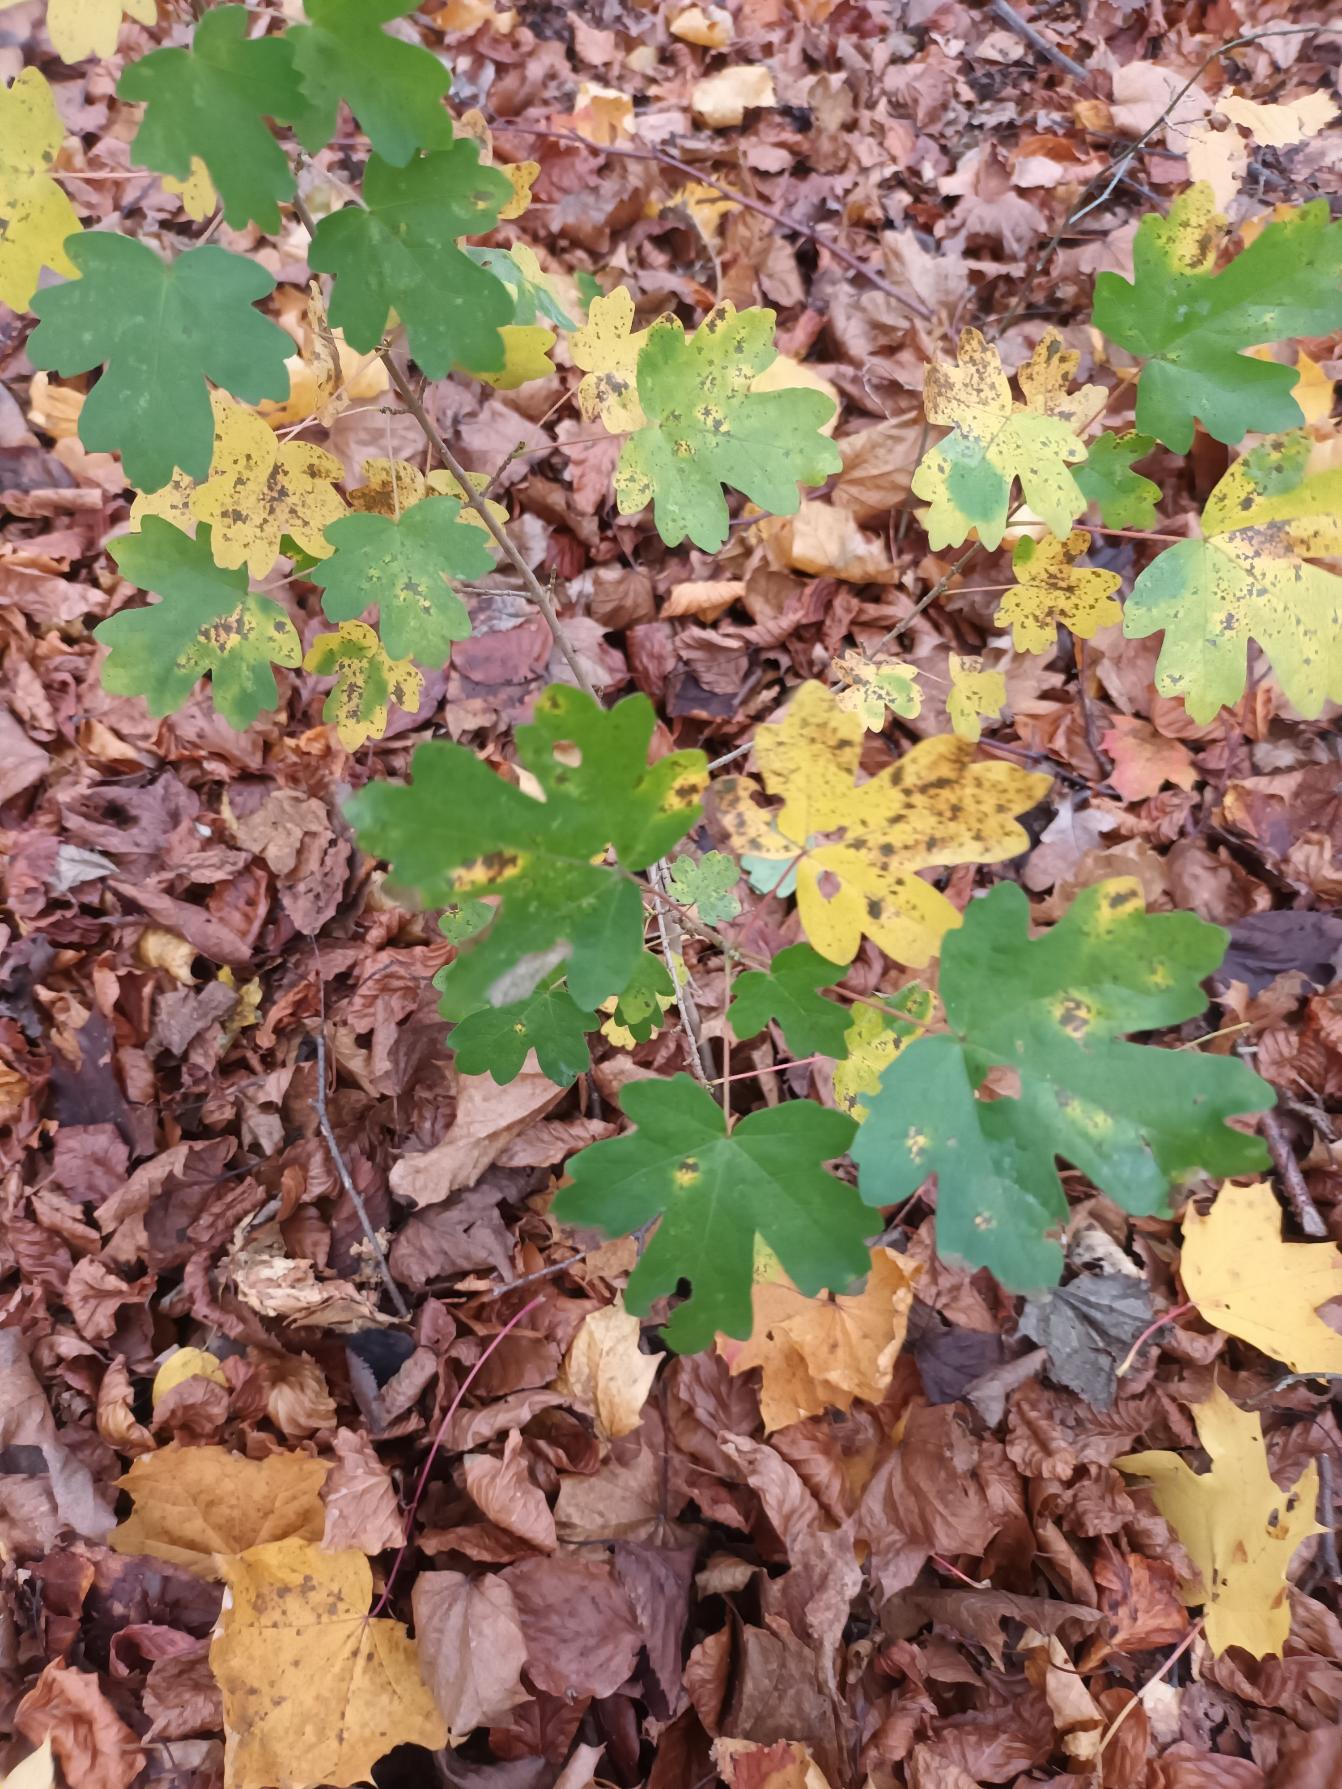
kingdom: Plantae
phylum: Tracheophyta
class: Magnoliopsida
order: Sapindales
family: Sapindaceae
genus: Acer
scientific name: Acer campestre
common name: Navr
